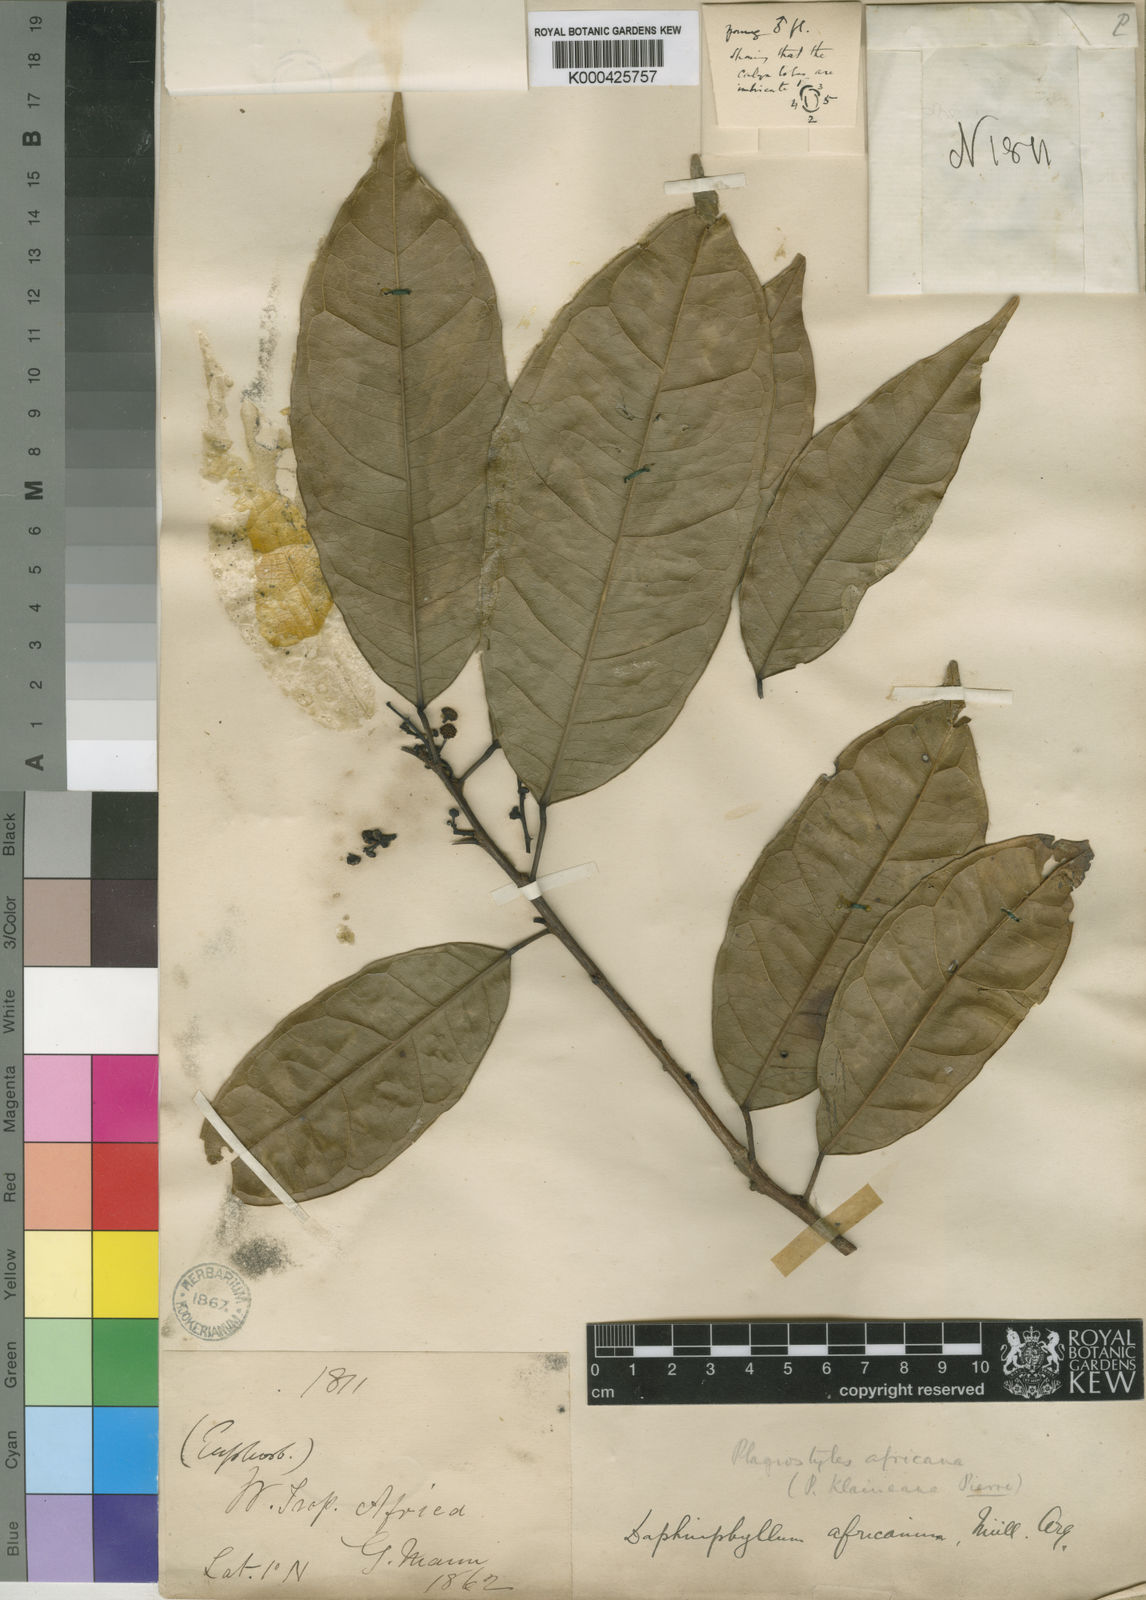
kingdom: Plantae
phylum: Tracheophyta
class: Magnoliopsida
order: Malpighiales
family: Euphorbiaceae
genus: Plagiostyles
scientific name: Plagiostyles
